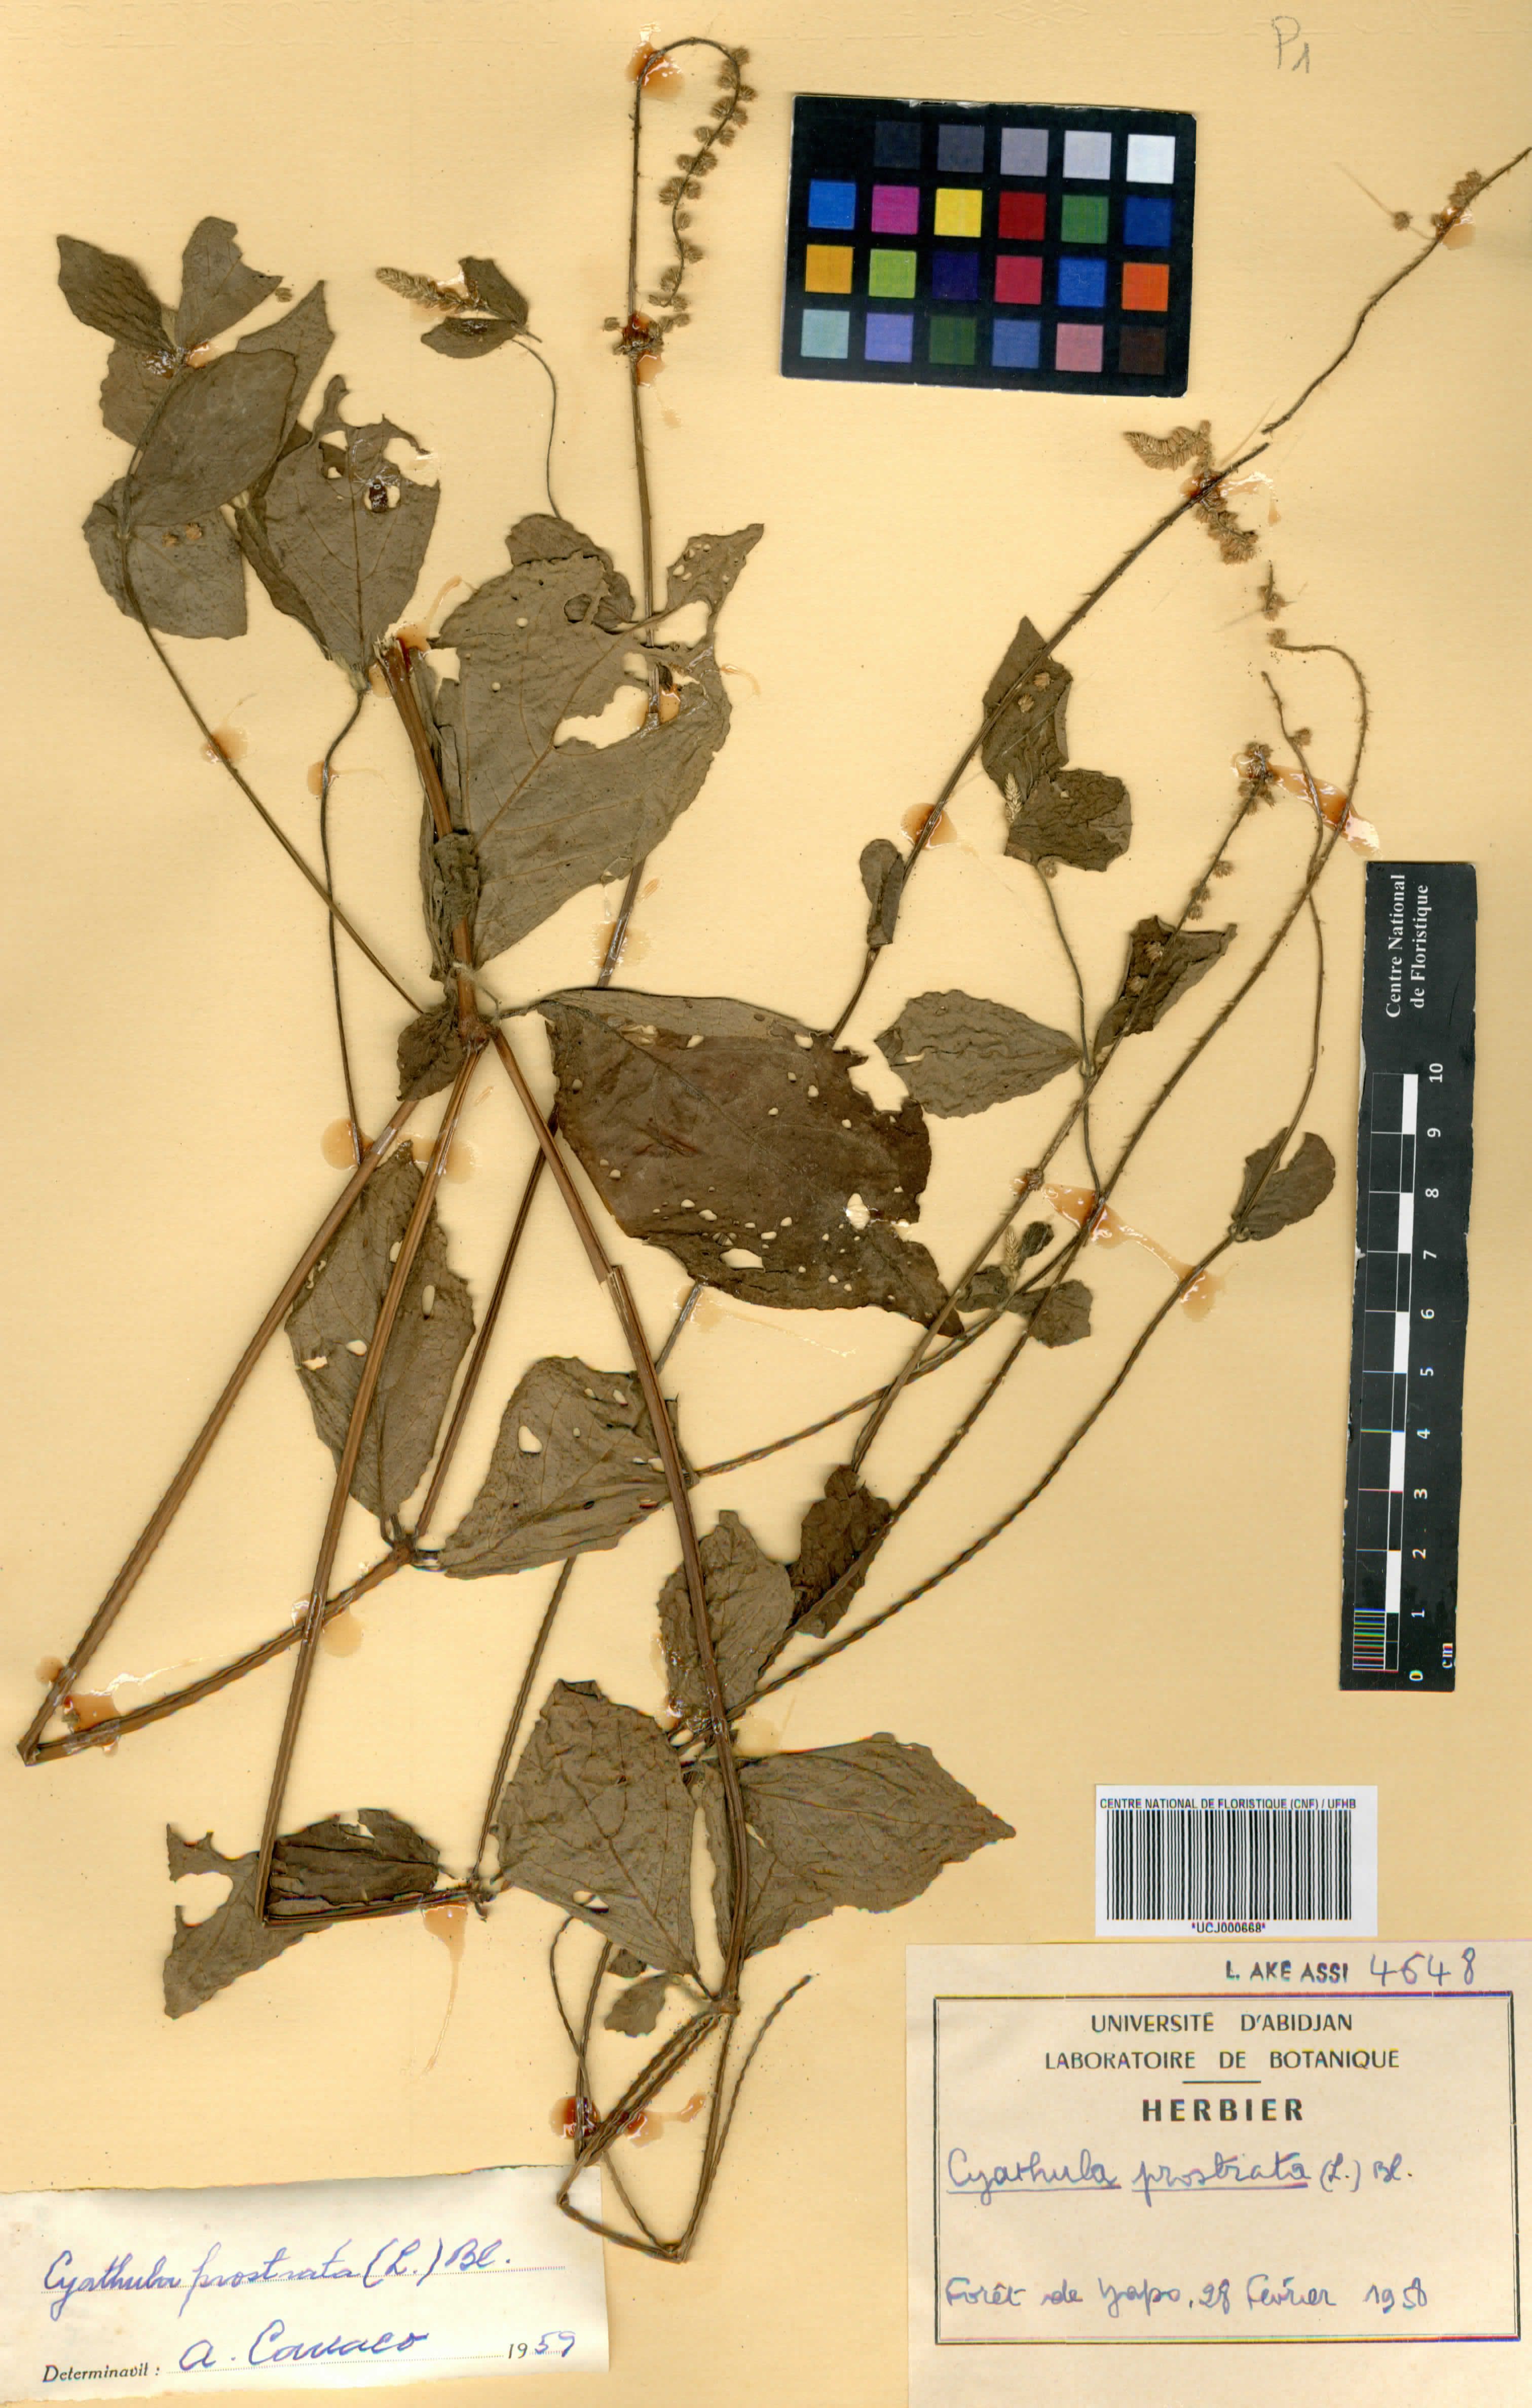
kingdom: Plantae
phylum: Tracheophyta
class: Magnoliopsida
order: Caryophyllales
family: Amaranthaceae
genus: Cyathula
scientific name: Cyathula prostrata
